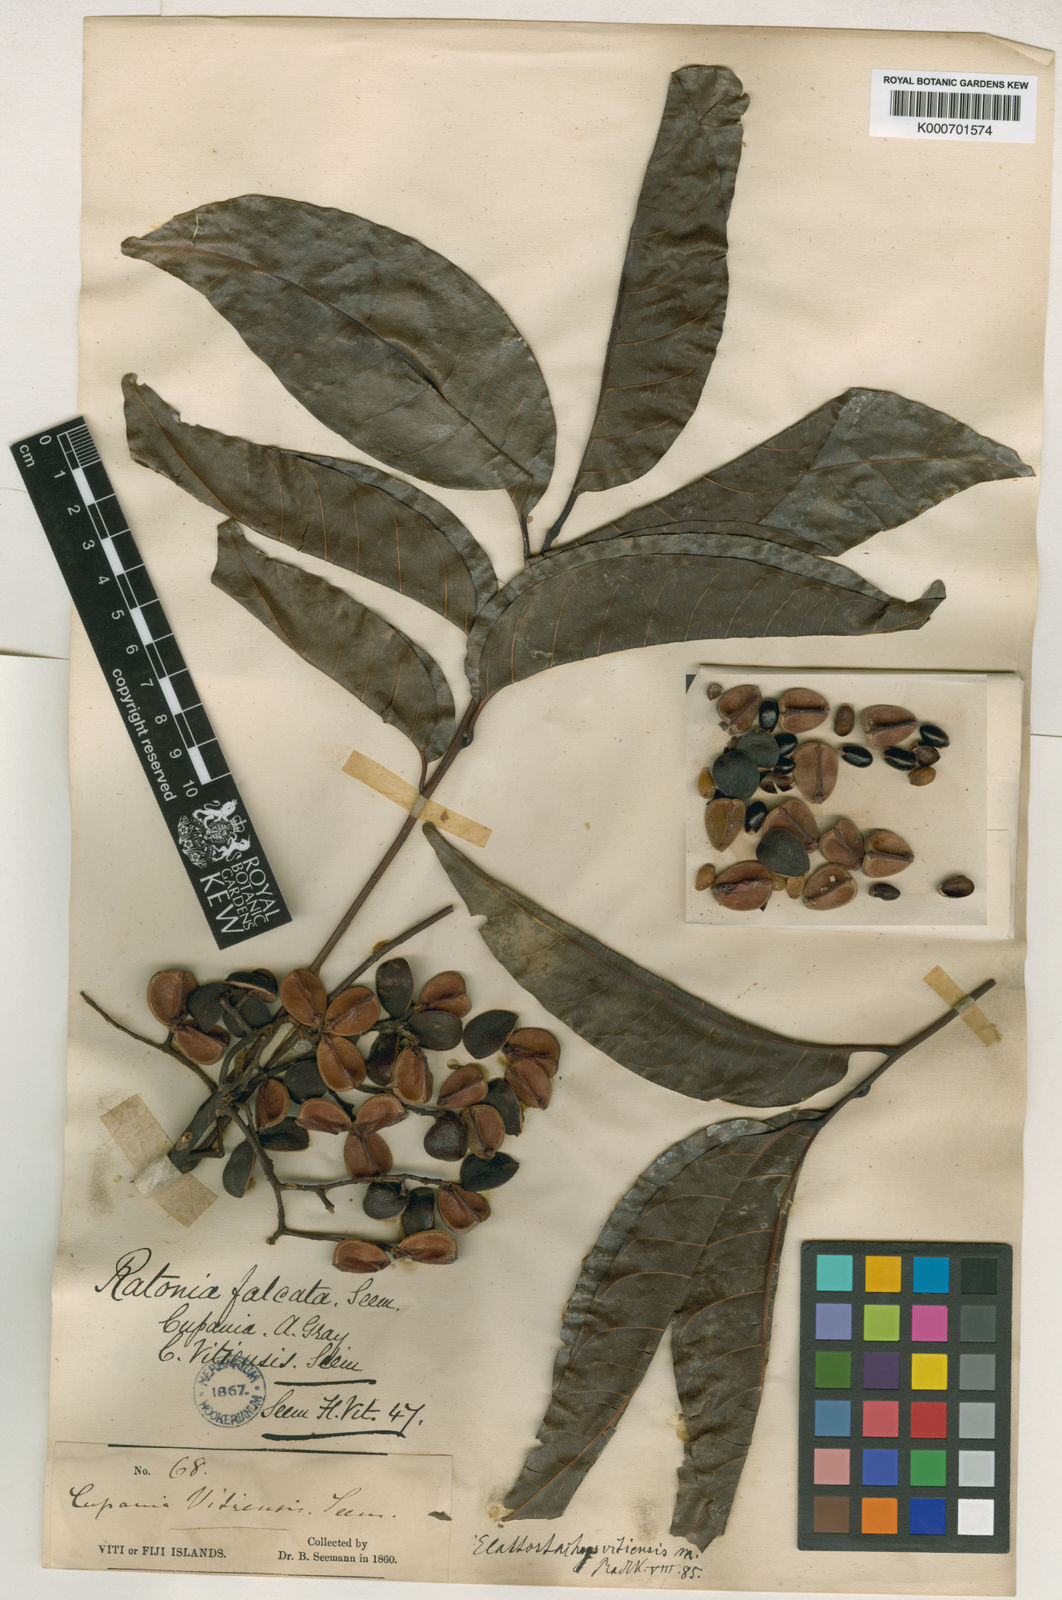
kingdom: Plantae
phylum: Tracheophyta
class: Magnoliopsida
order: Sapindales
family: Sapindaceae
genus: Elattostachys
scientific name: Elattostachys apetala
